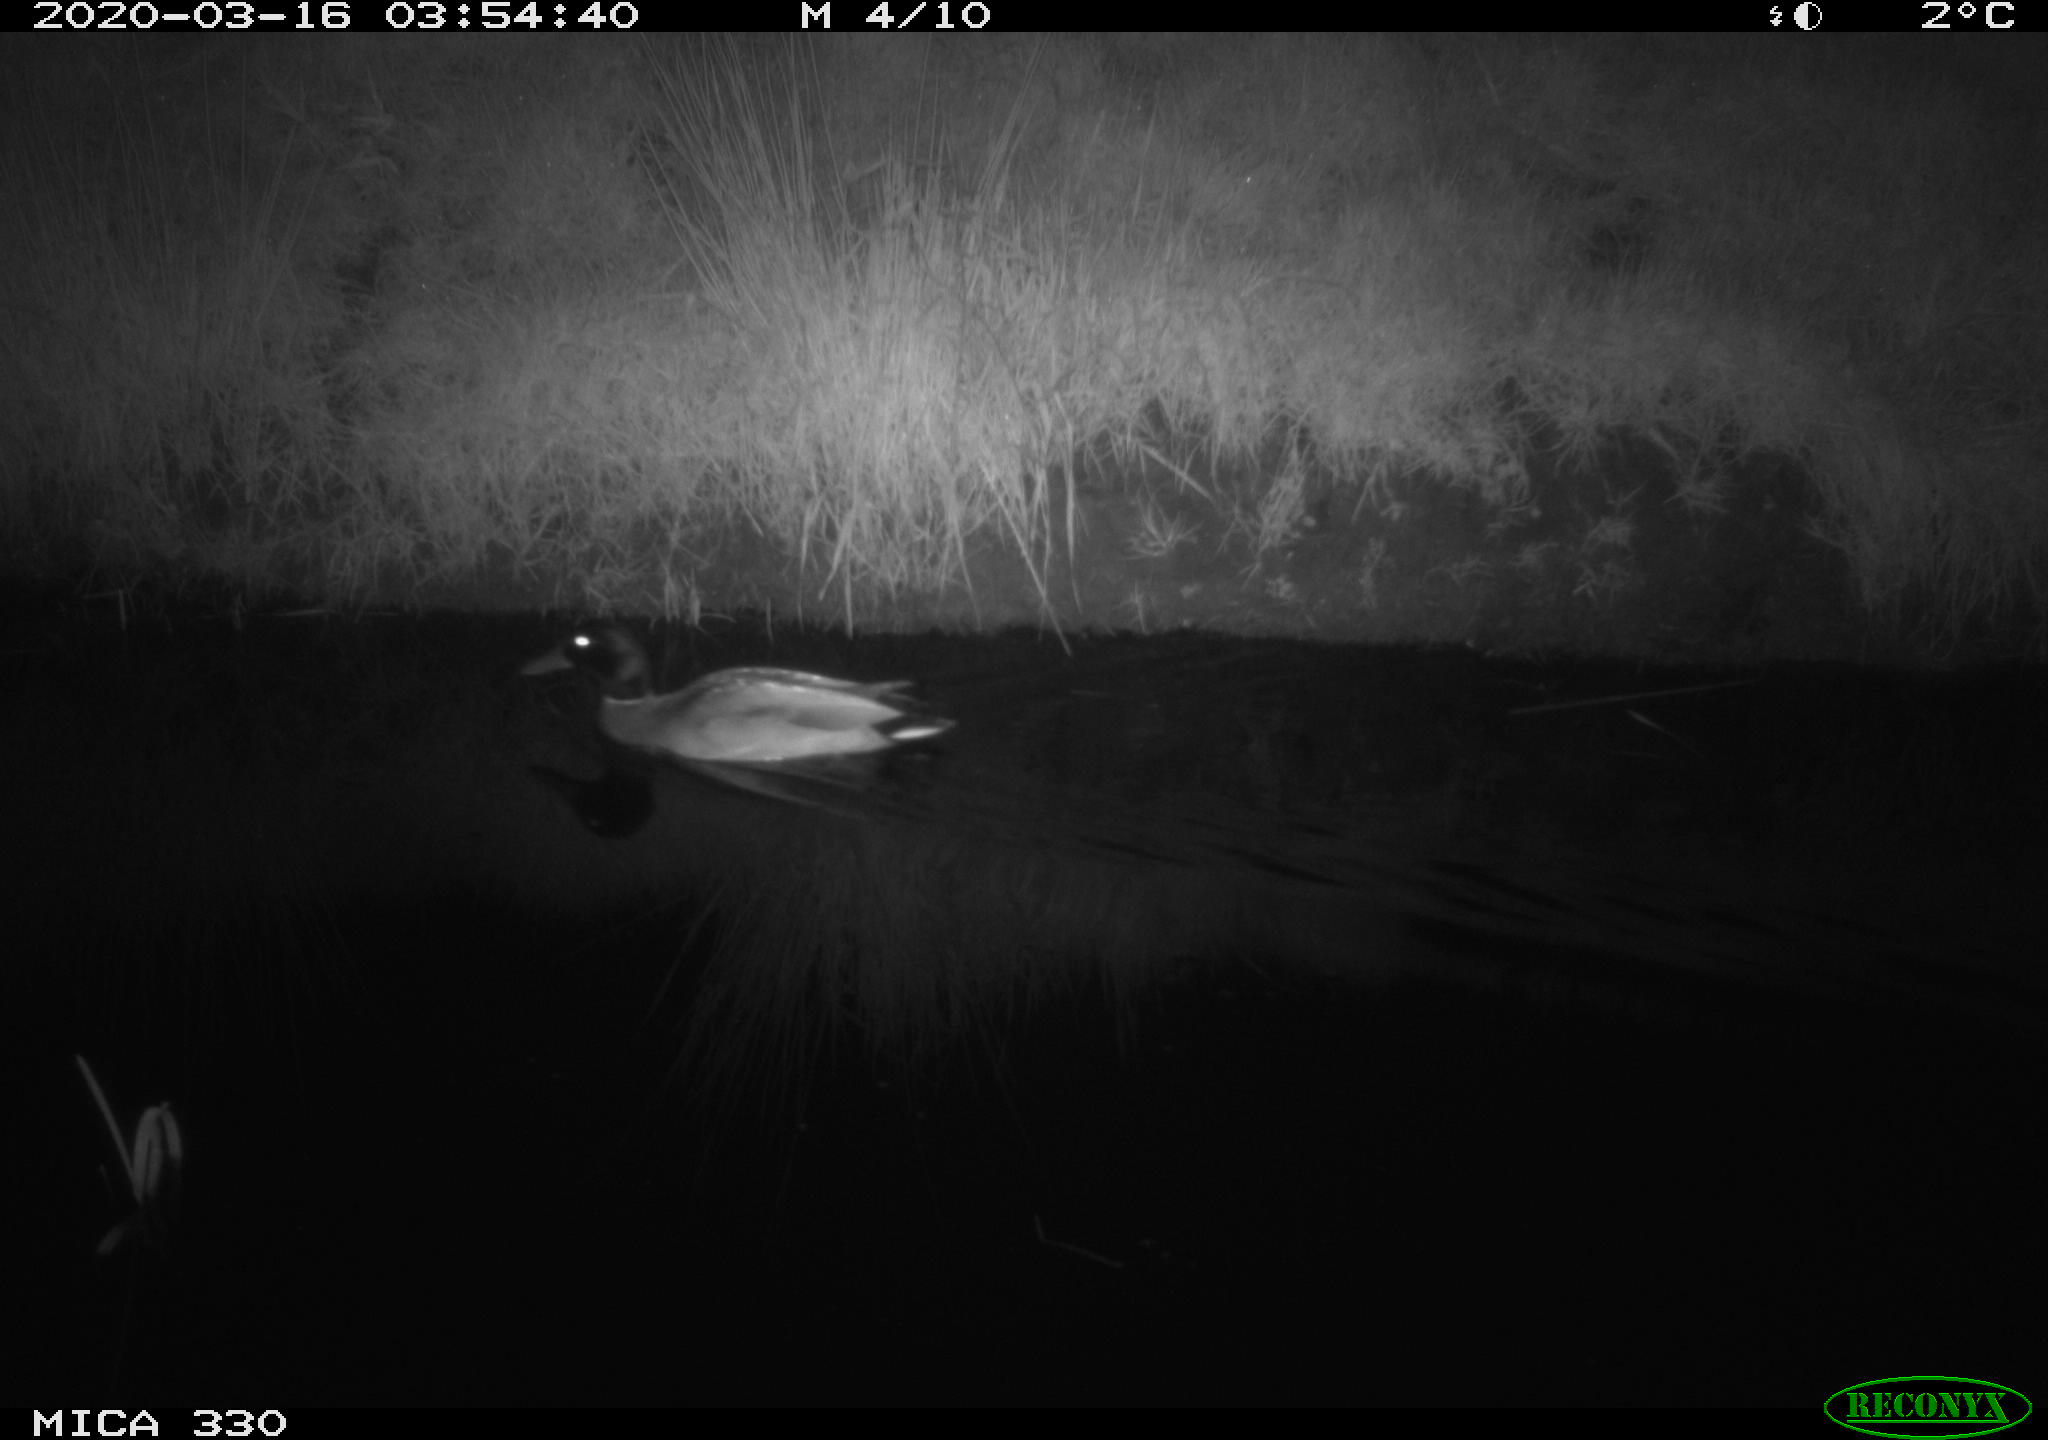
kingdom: Animalia
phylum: Chordata
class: Aves
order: Anseriformes
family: Anatidae
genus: Anas
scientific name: Anas platyrhynchos
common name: Mallard
